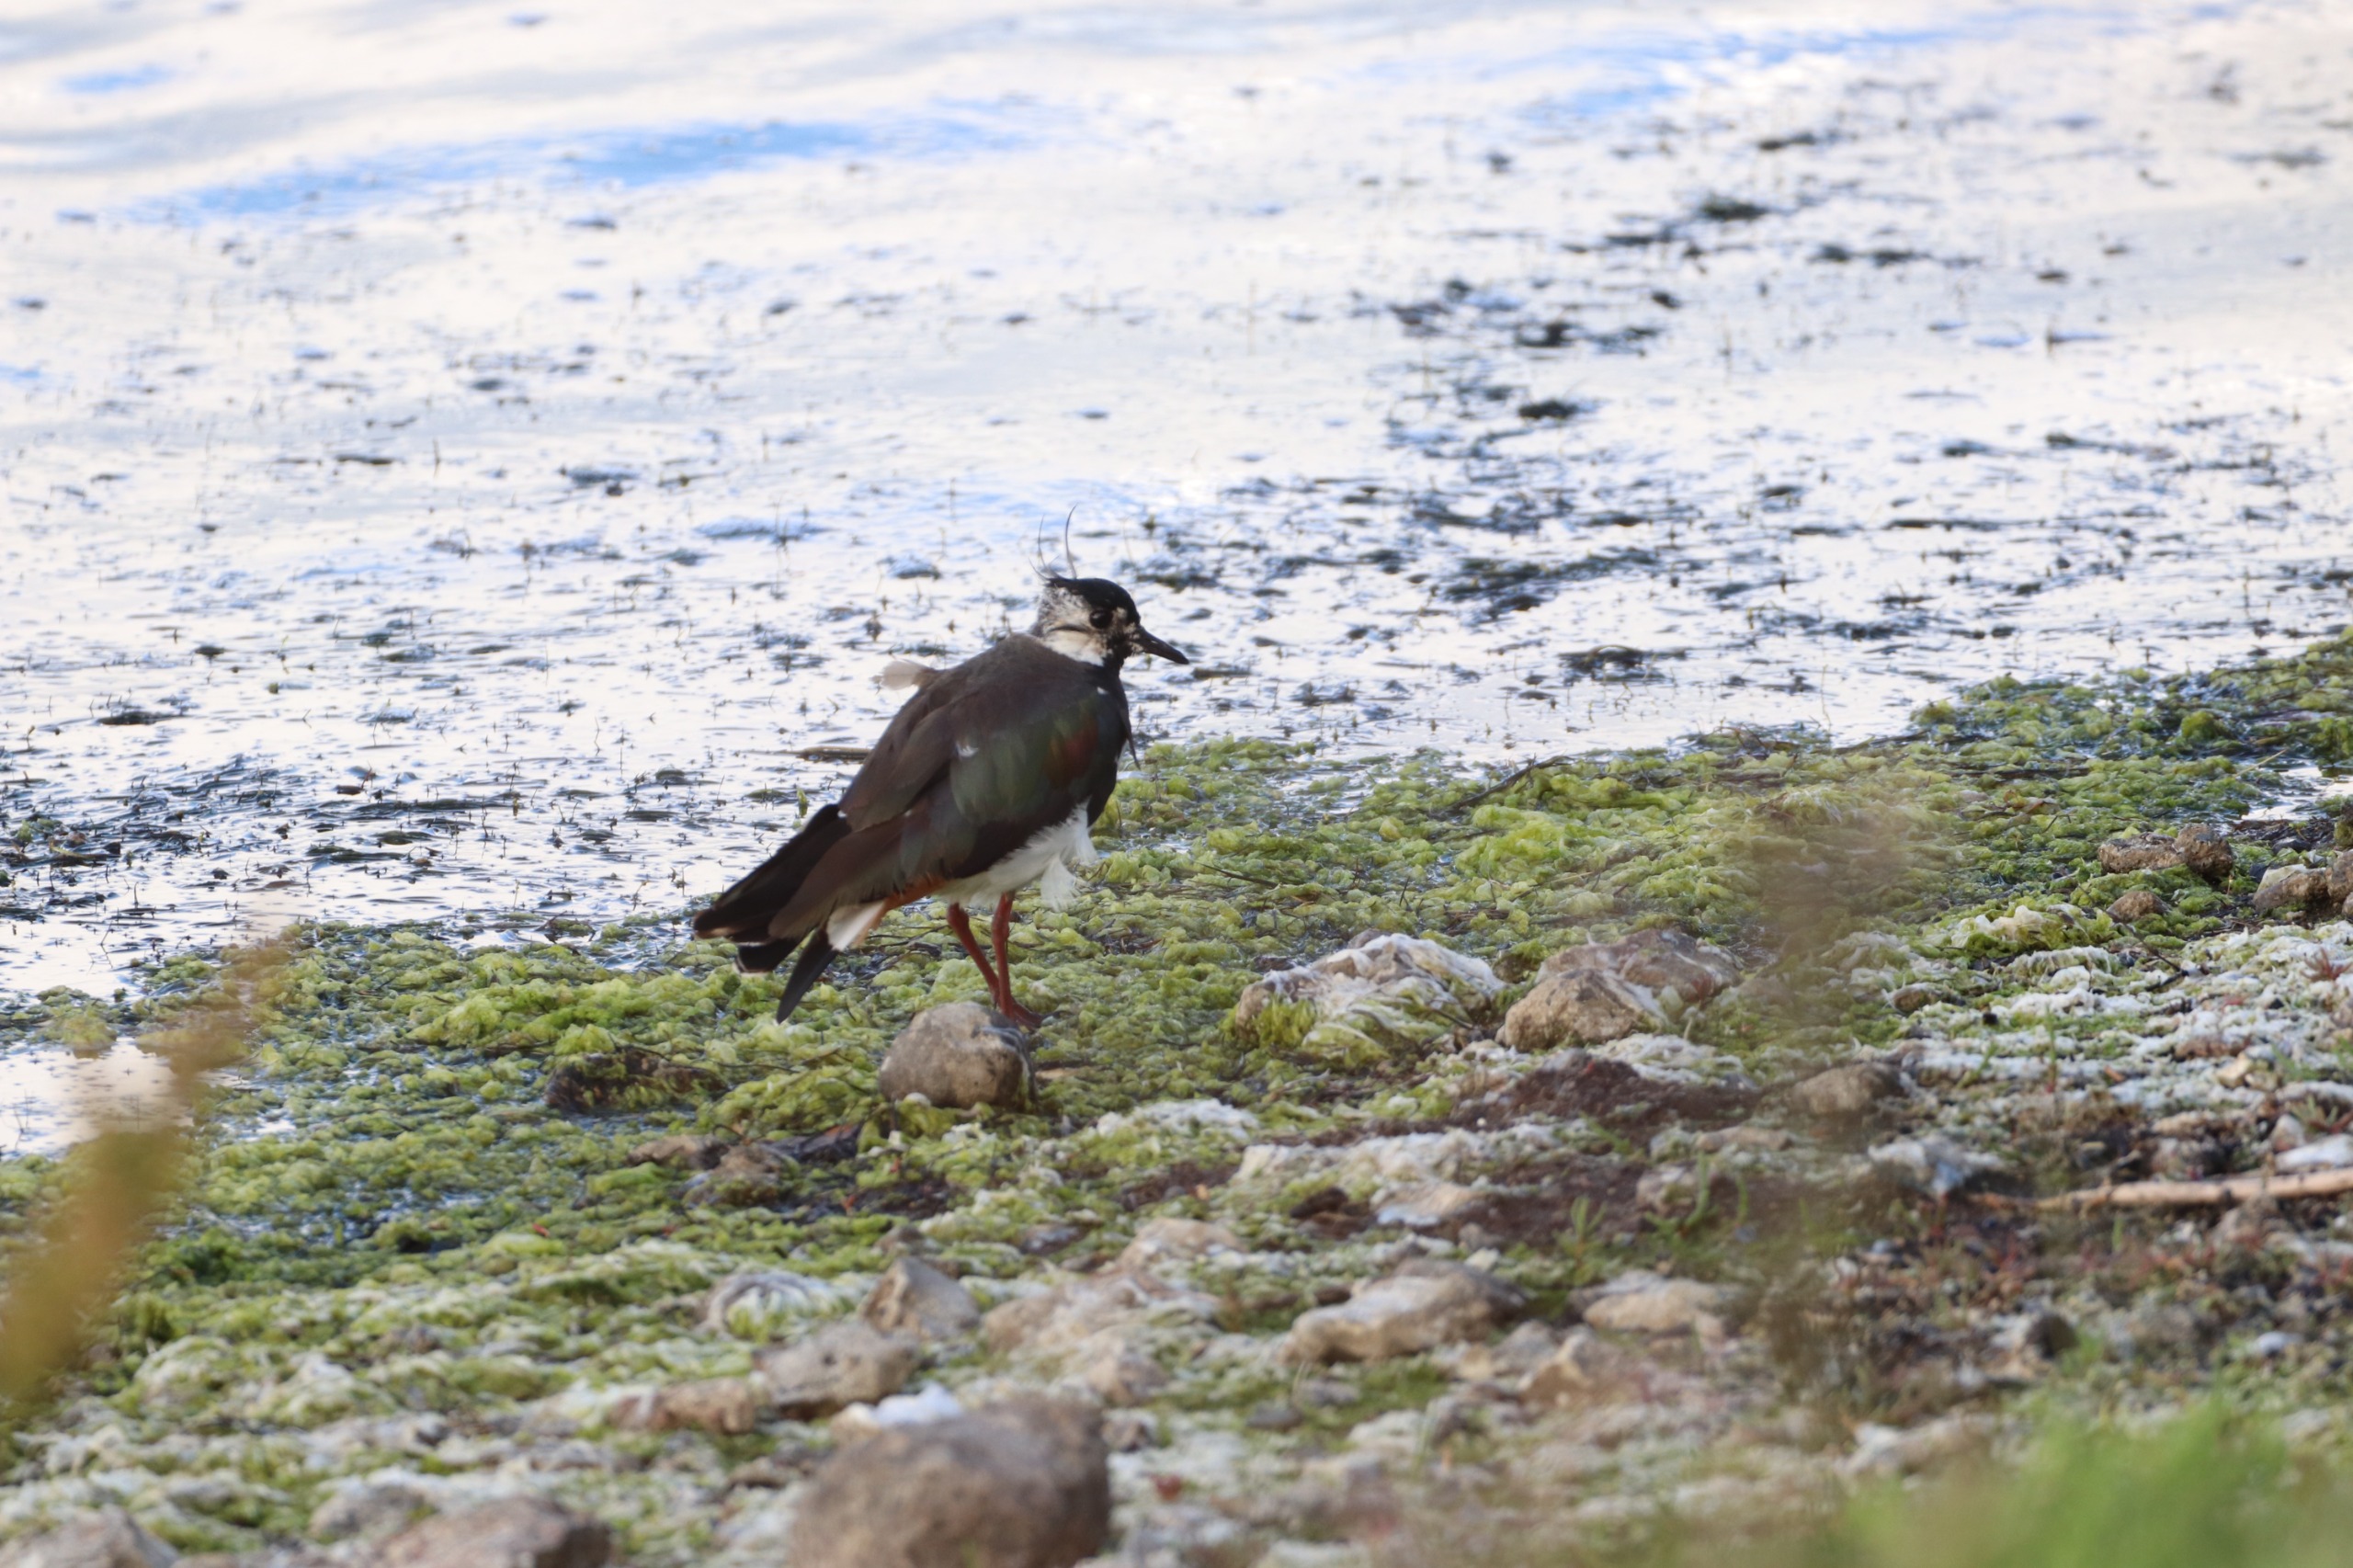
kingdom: Animalia
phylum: Chordata
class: Aves
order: Charadriiformes
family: Charadriidae
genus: Vanellus
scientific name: Vanellus vanellus
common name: Vibe
